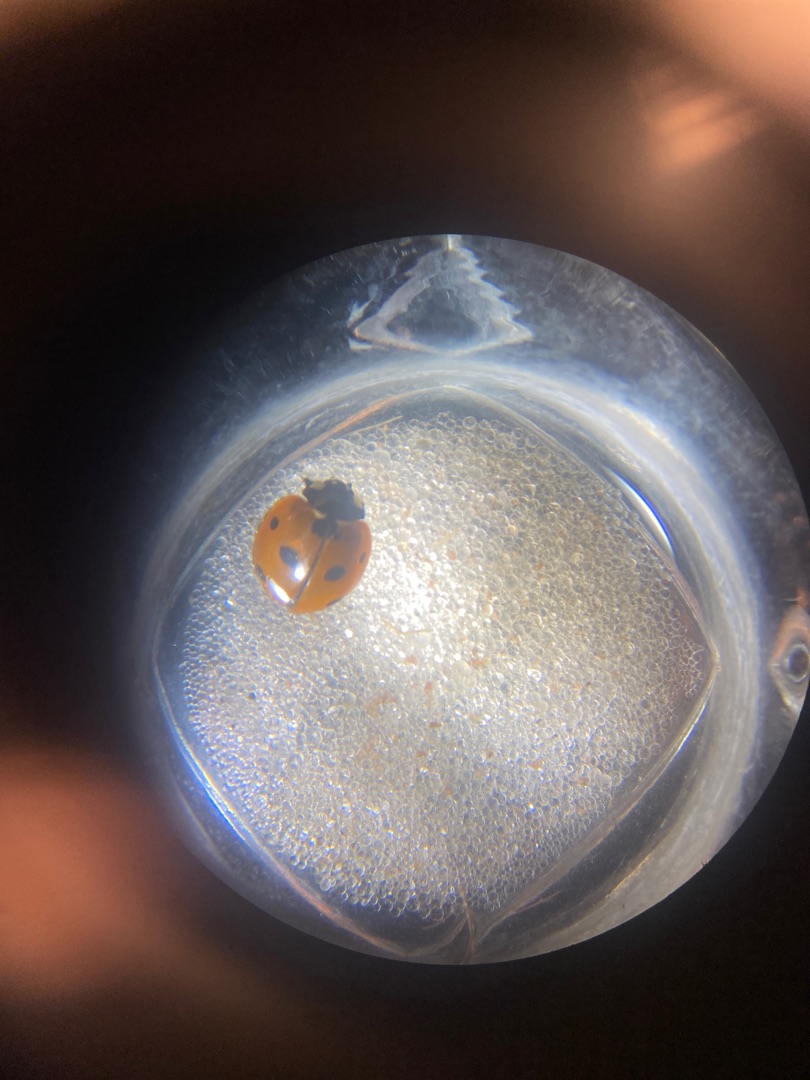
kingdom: Animalia
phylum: Arthropoda
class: Insecta
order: Coleoptera
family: Coccinellidae
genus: Coccinella
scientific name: Coccinella septempunctata
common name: Syvplettet mariehøne
